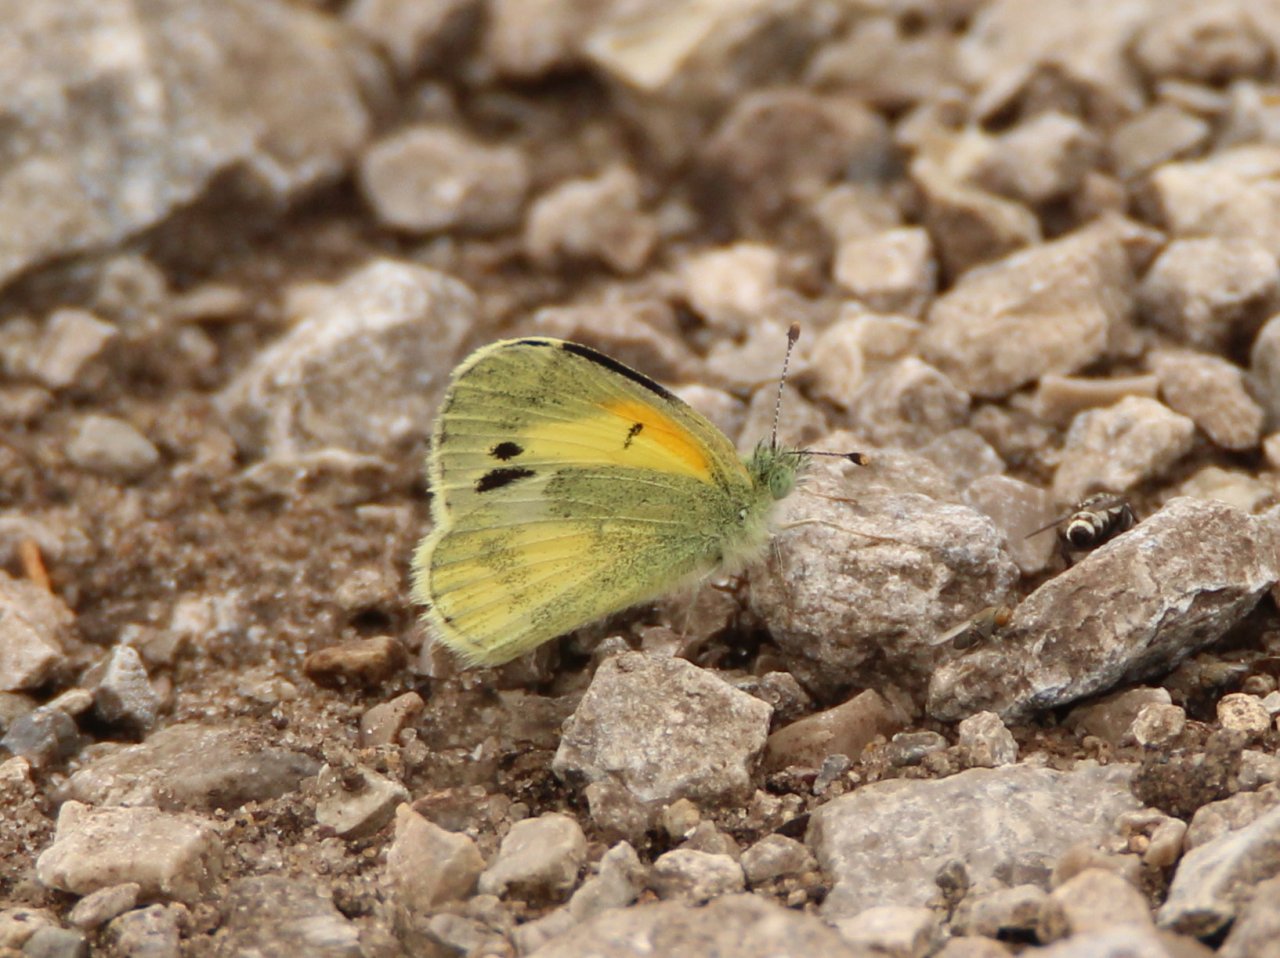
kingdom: Animalia
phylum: Arthropoda
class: Insecta
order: Lepidoptera
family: Pieridae
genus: Nathalis
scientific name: Nathalis iole
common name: Dainty Sulphur
